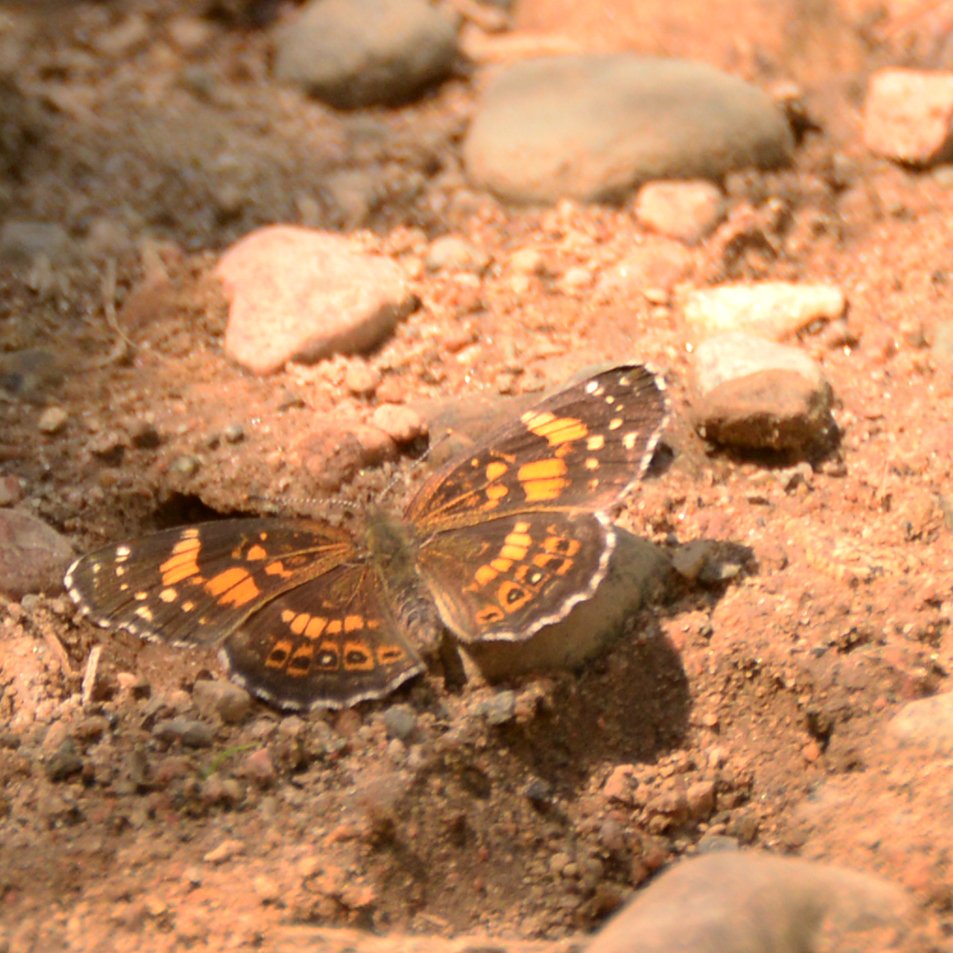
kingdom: Animalia
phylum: Arthropoda
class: Insecta
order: Lepidoptera
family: Nymphalidae
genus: Chlosyne
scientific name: Chlosyne nycteis
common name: Silvery Checkerspot
